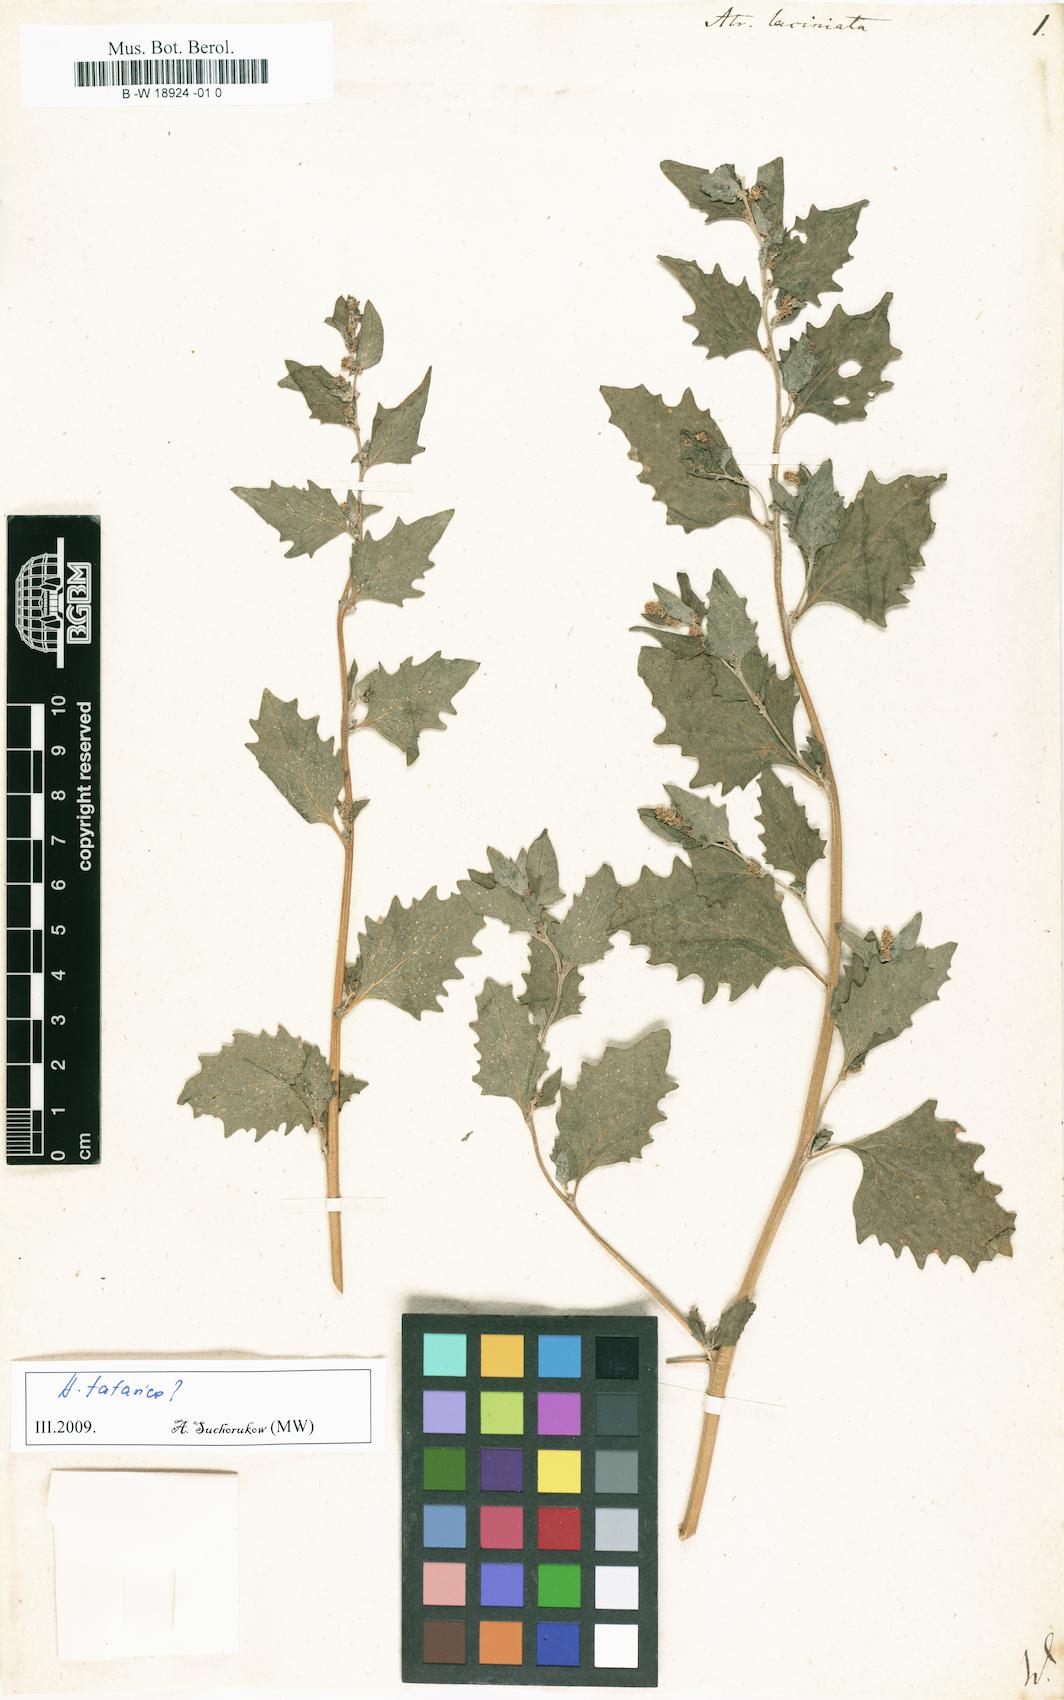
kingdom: Plantae
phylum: Tracheophyta
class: Magnoliopsida
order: Caryophyllales
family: Amaranthaceae
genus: Atriplex
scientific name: Atriplex laciniata
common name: Frosted orache
